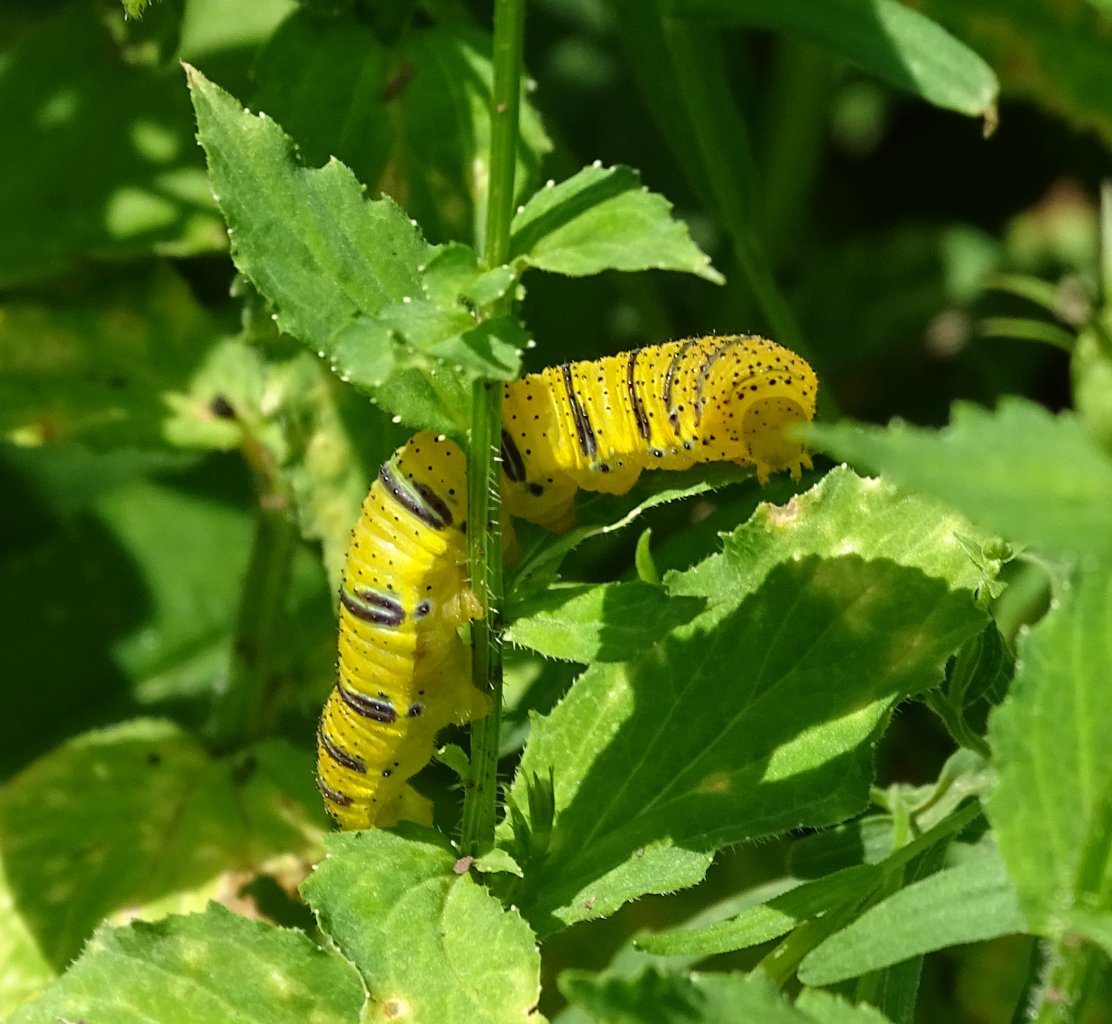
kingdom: Animalia
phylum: Arthropoda
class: Insecta
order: Lepidoptera
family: Pieridae
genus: Phoebis
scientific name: Phoebis sennae
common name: Cloudless Sulphur
